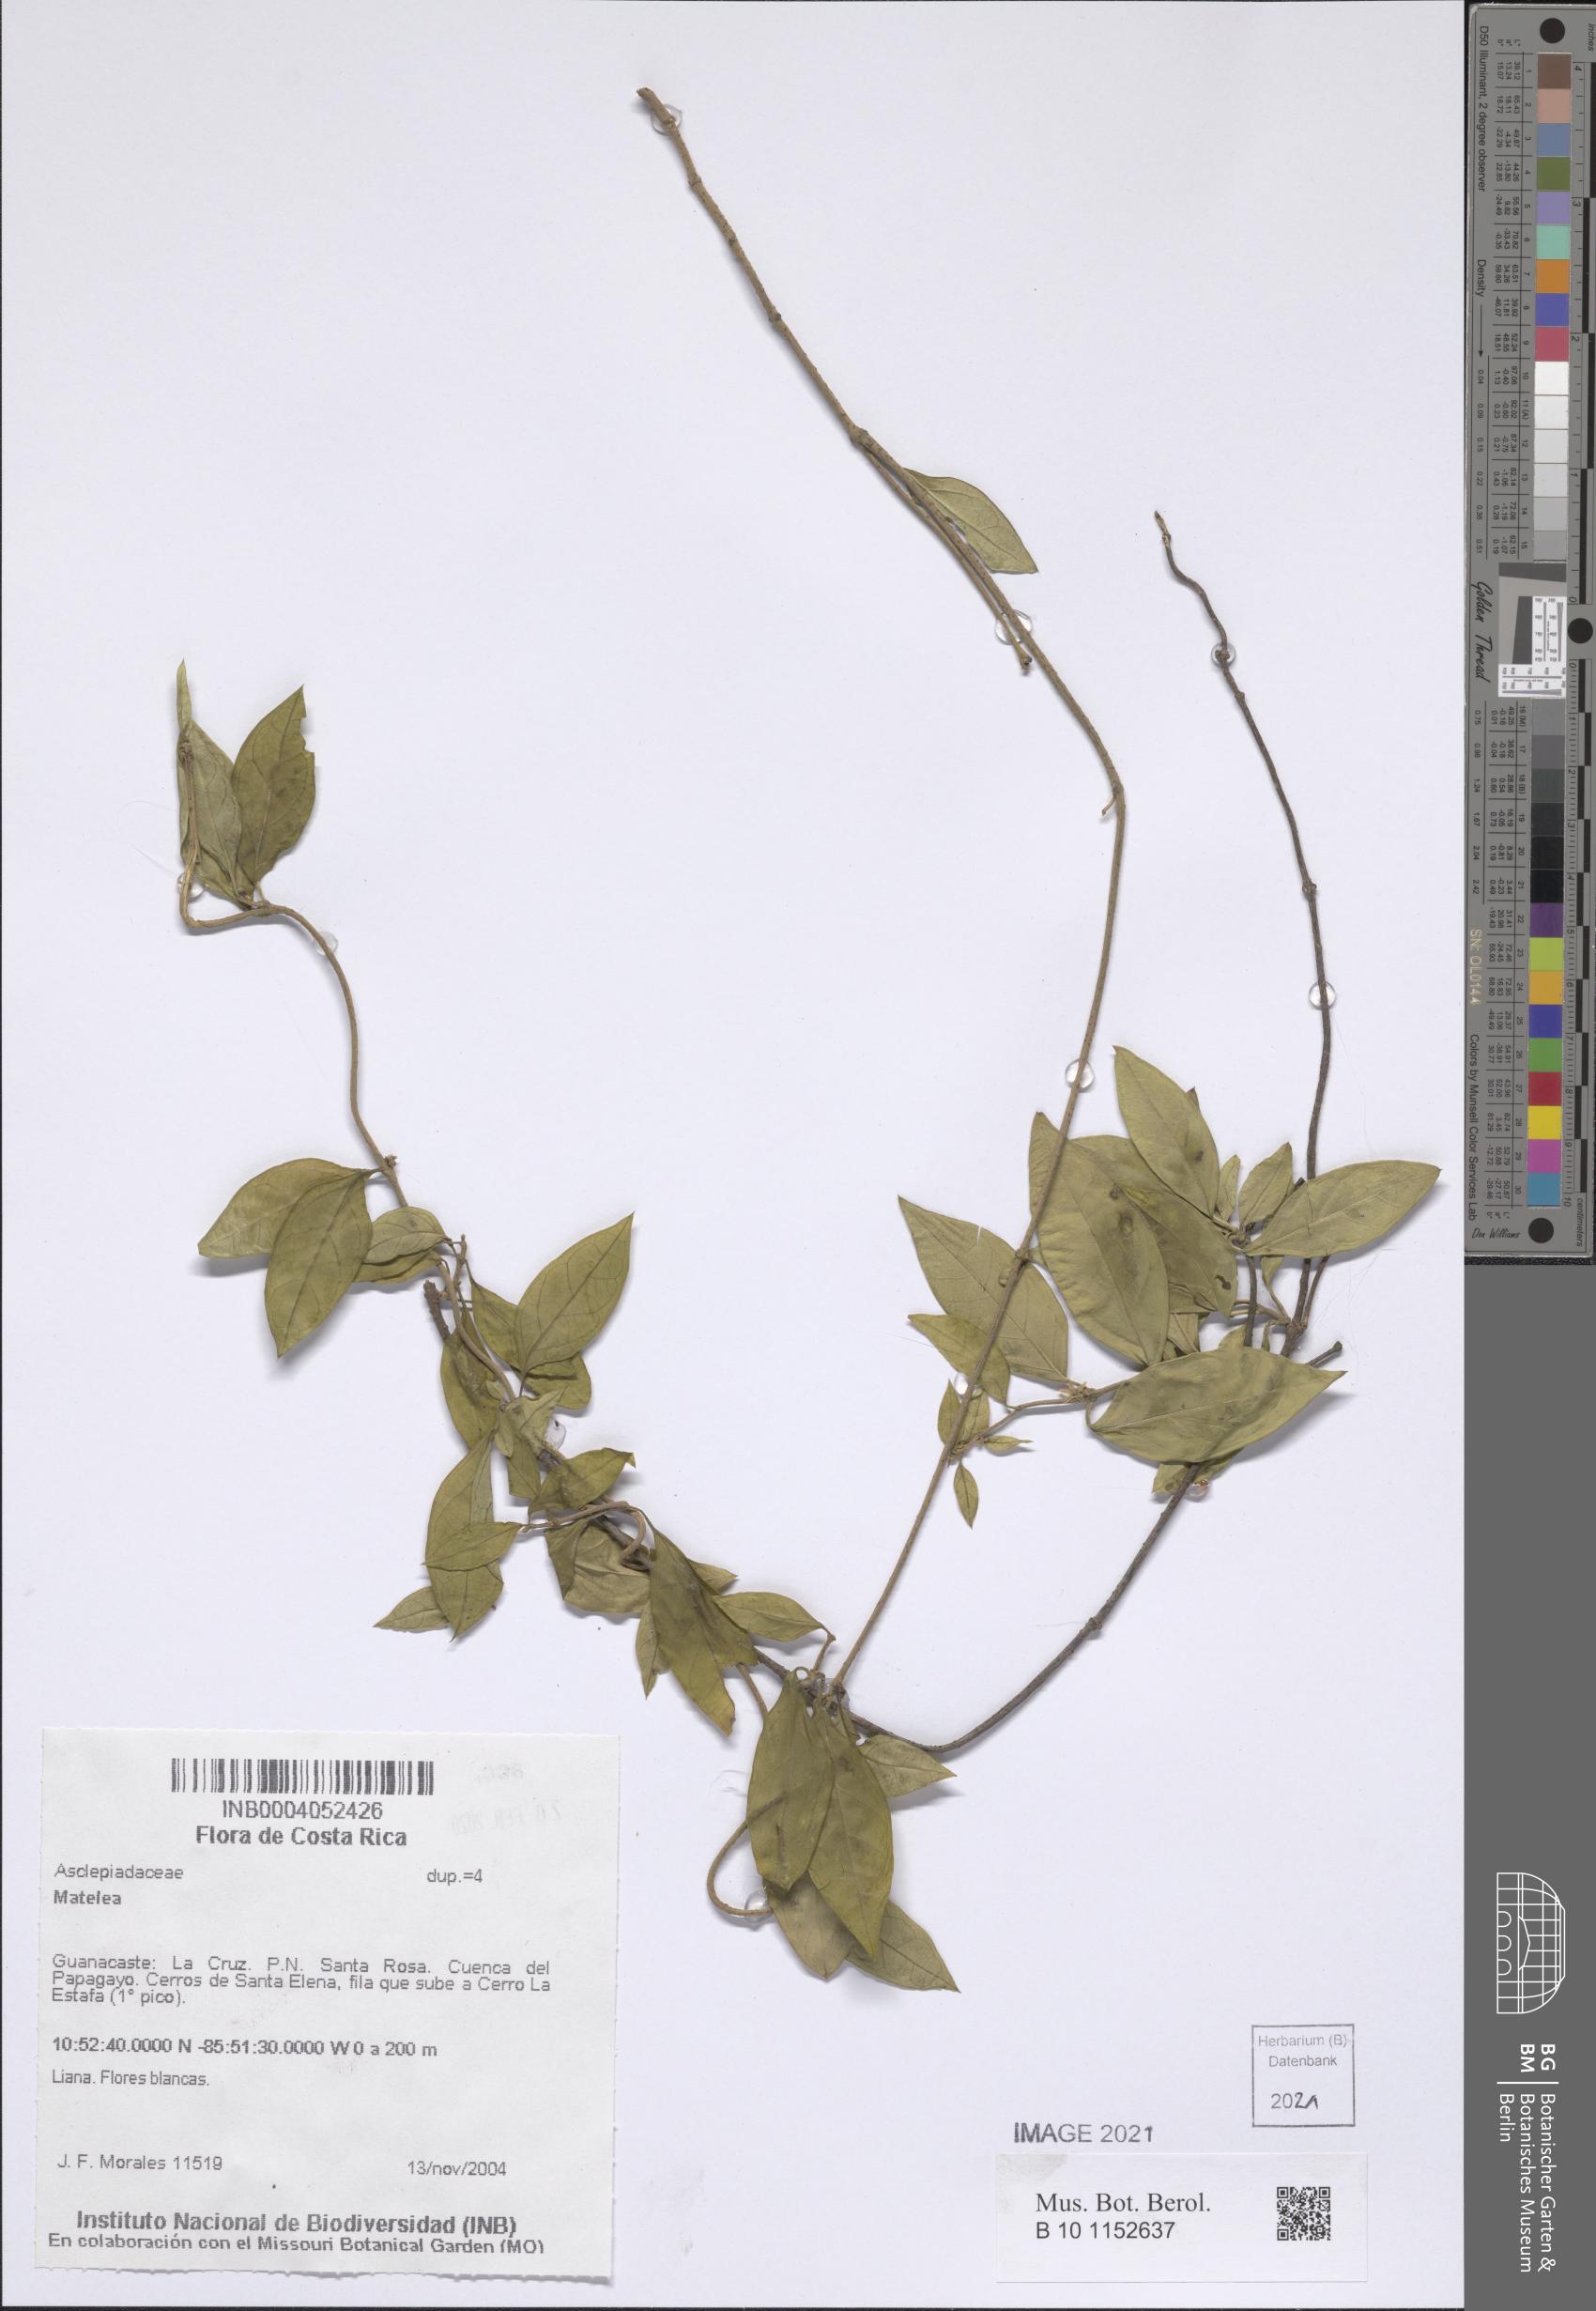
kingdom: Plantae
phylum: Tracheophyta
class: Magnoliopsida
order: Gentianales
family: Apocynaceae
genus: Ruehssia
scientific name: Ruehssia trivirgulata
